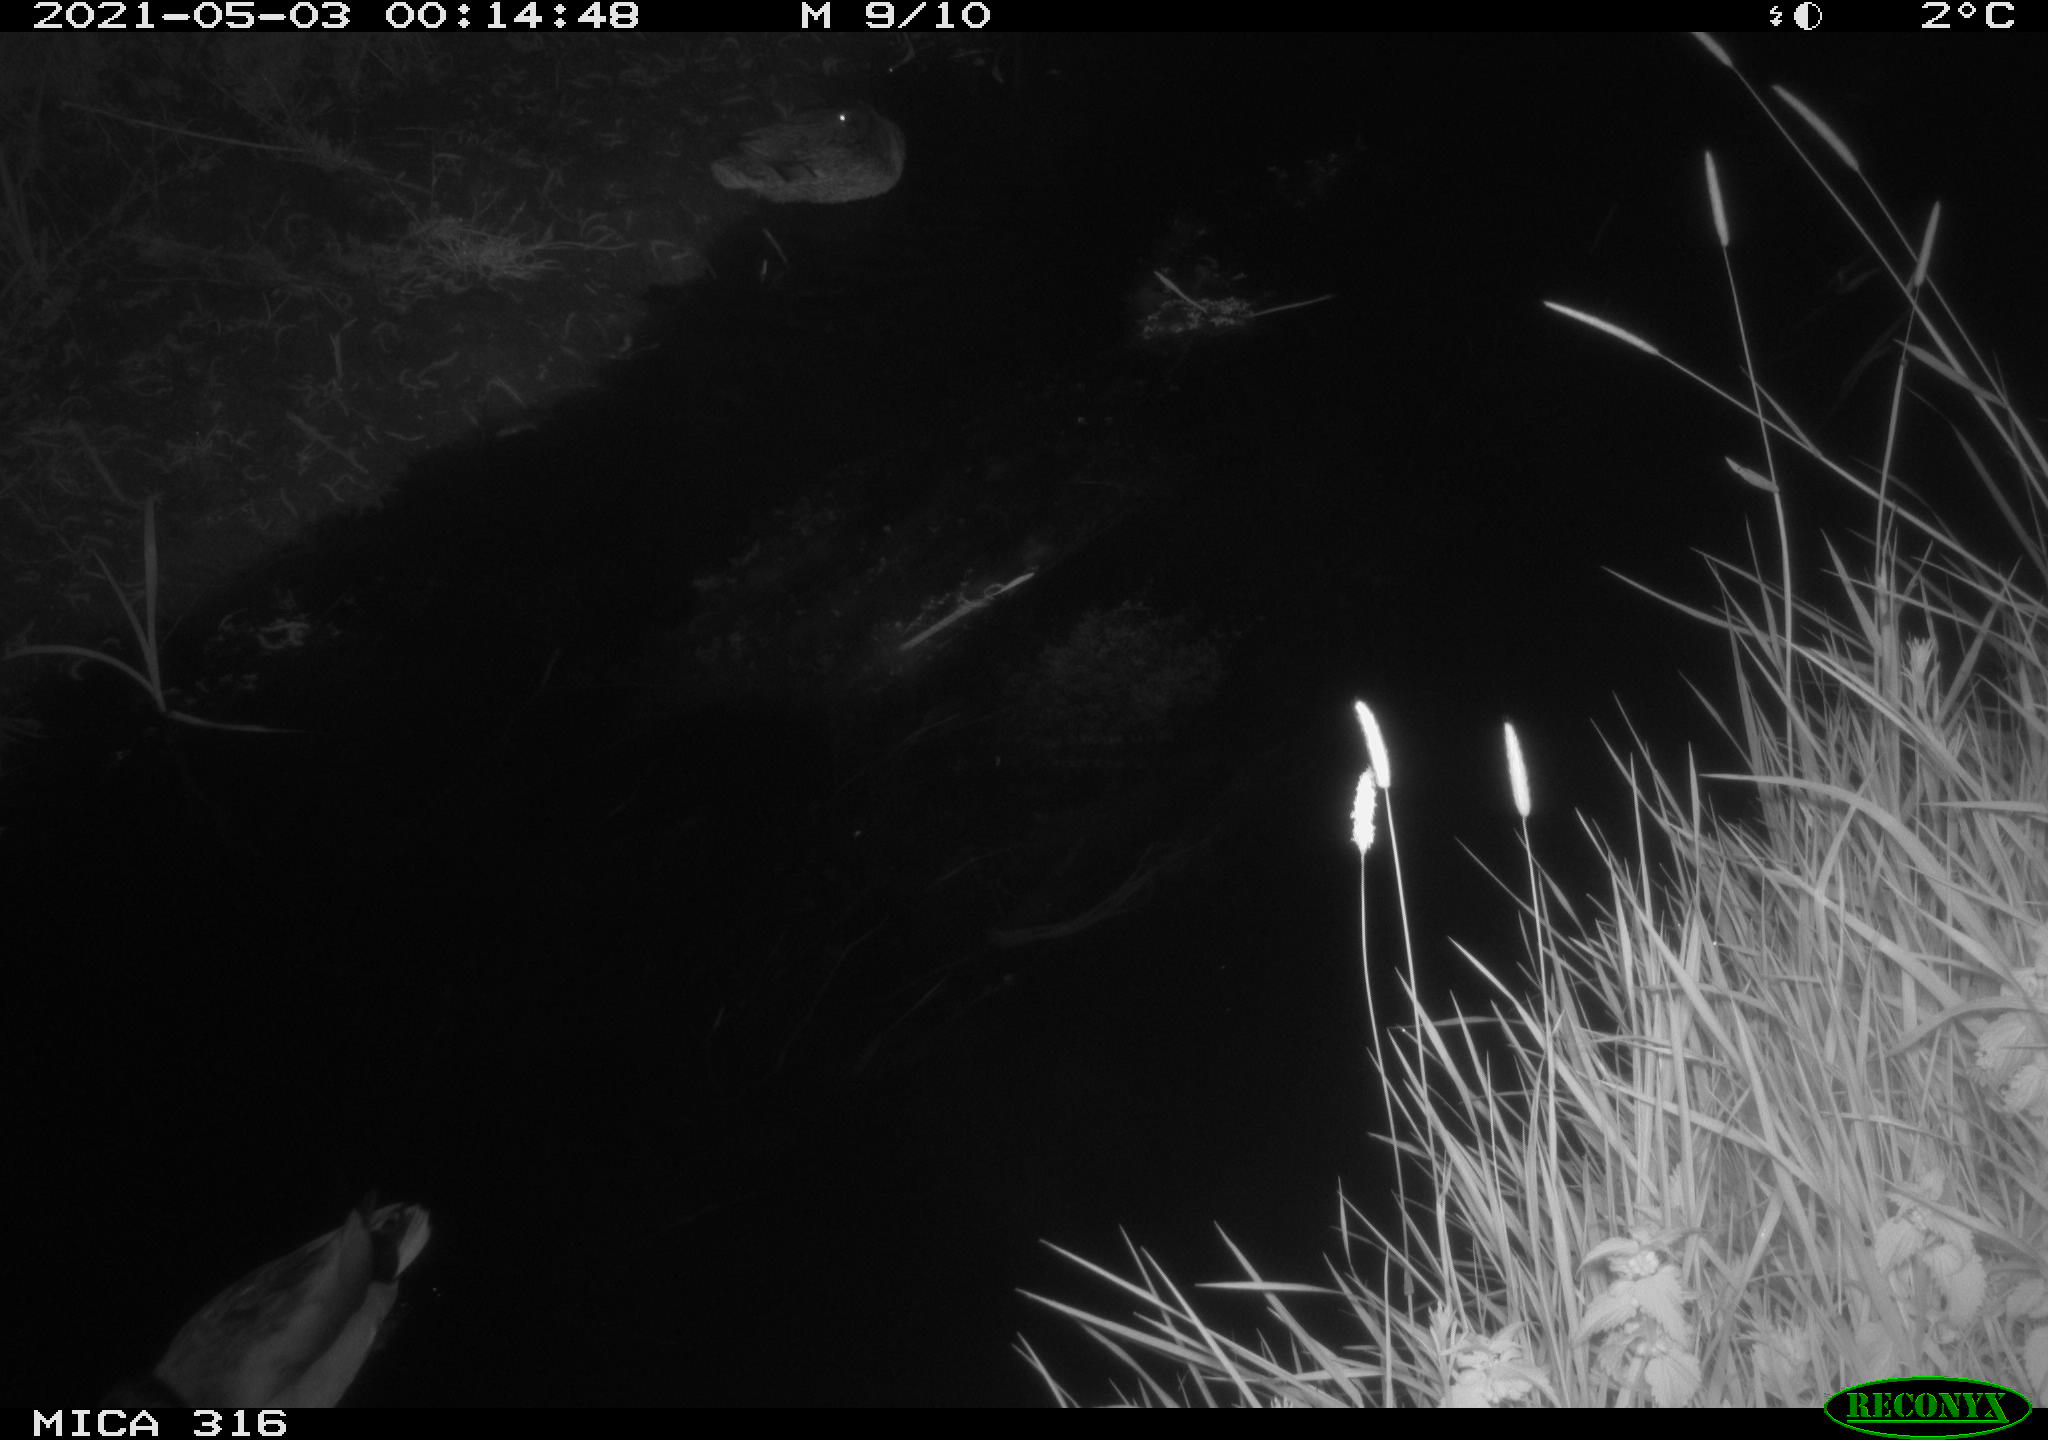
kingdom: Animalia
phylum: Chordata
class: Aves
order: Anseriformes
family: Anatidae
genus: Anas
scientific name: Anas platyrhynchos
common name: Mallard
